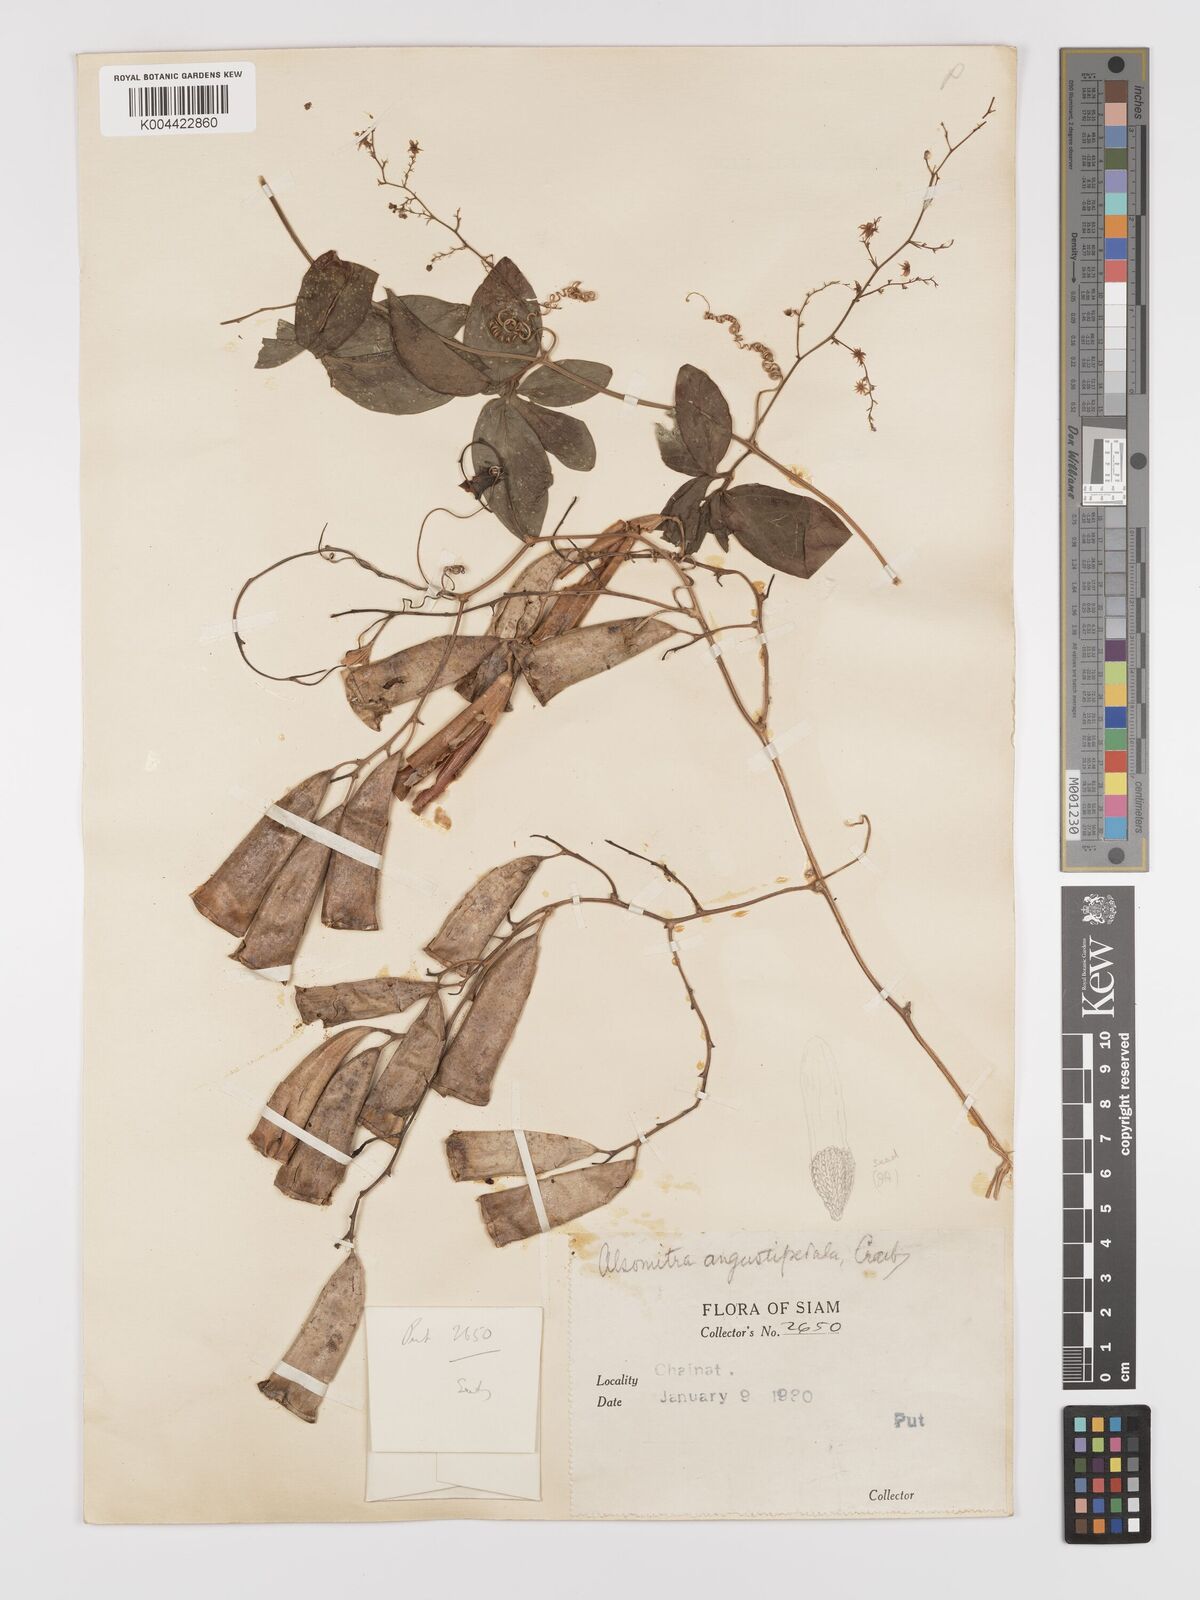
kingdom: Plantae
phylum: Tracheophyta
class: Magnoliopsida
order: Cucurbitales
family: Cucurbitaceae
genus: Neoalsomitra
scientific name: Neoalsomitra angustipetala
